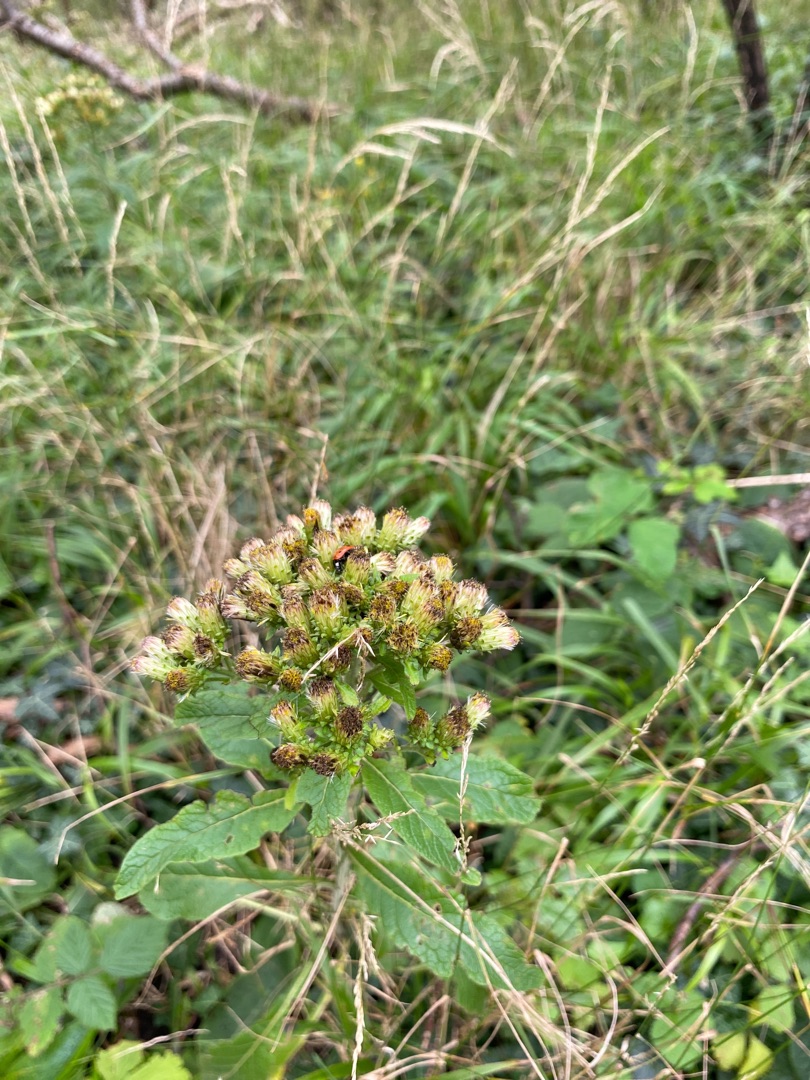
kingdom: Plantae
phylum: Tracheophyta
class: Magnoliopsida
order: Asterales
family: Asteraceae
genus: Pentanema
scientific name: Pentanema squarrosum
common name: Trekløft-alant
